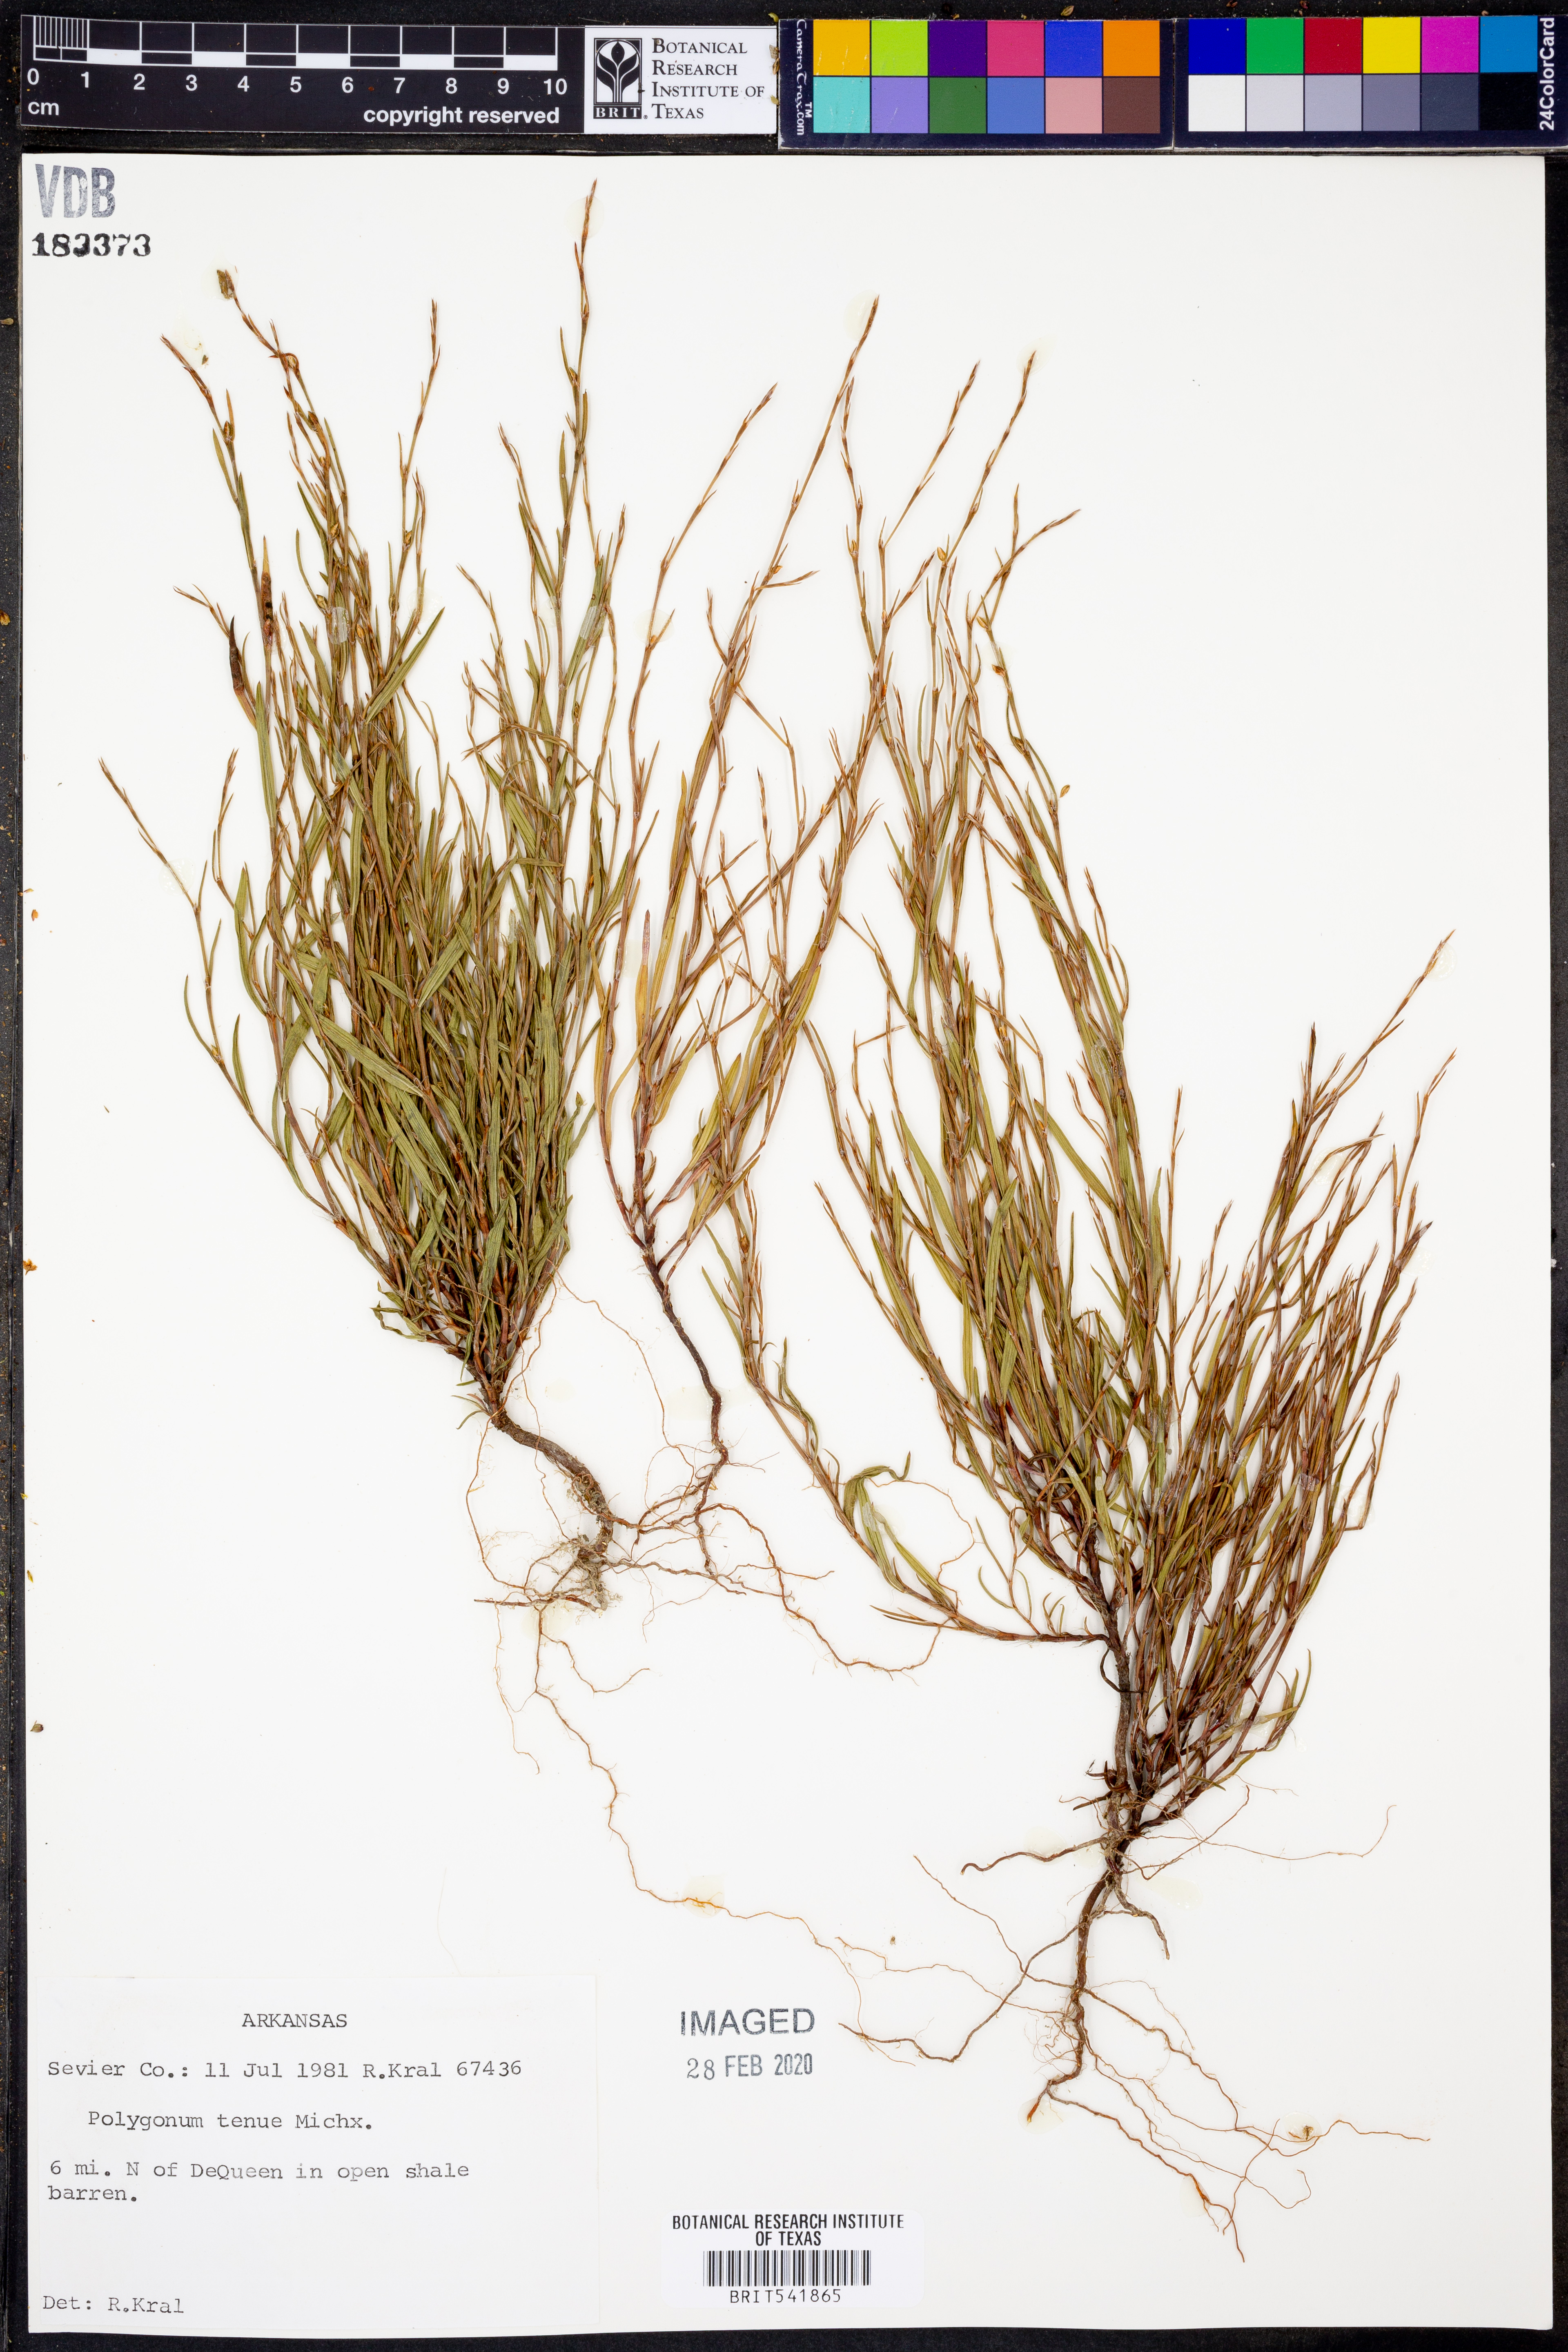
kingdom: Plantae
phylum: Tracheophyta
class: Magnoliopsida
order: Caryophyllales
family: Polygonaceae
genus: Polygonum
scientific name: Polygonum tenue
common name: Pleat-leaved knotweed
